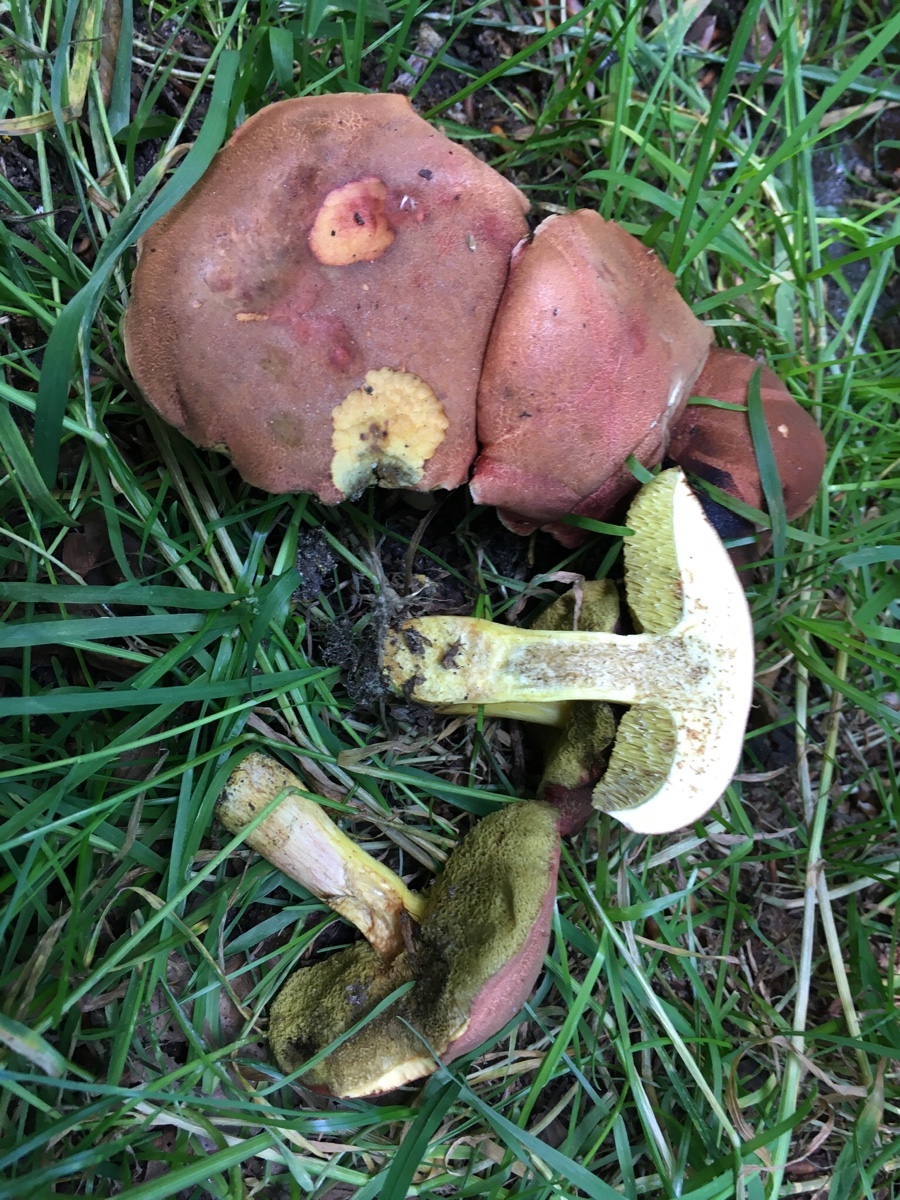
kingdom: Fungi
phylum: Basidiomycota
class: Agaricomycetes
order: Boletales
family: Boletaceae
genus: Hortiboletus
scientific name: Hortiboletus rubellus
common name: blodrød rørhat
